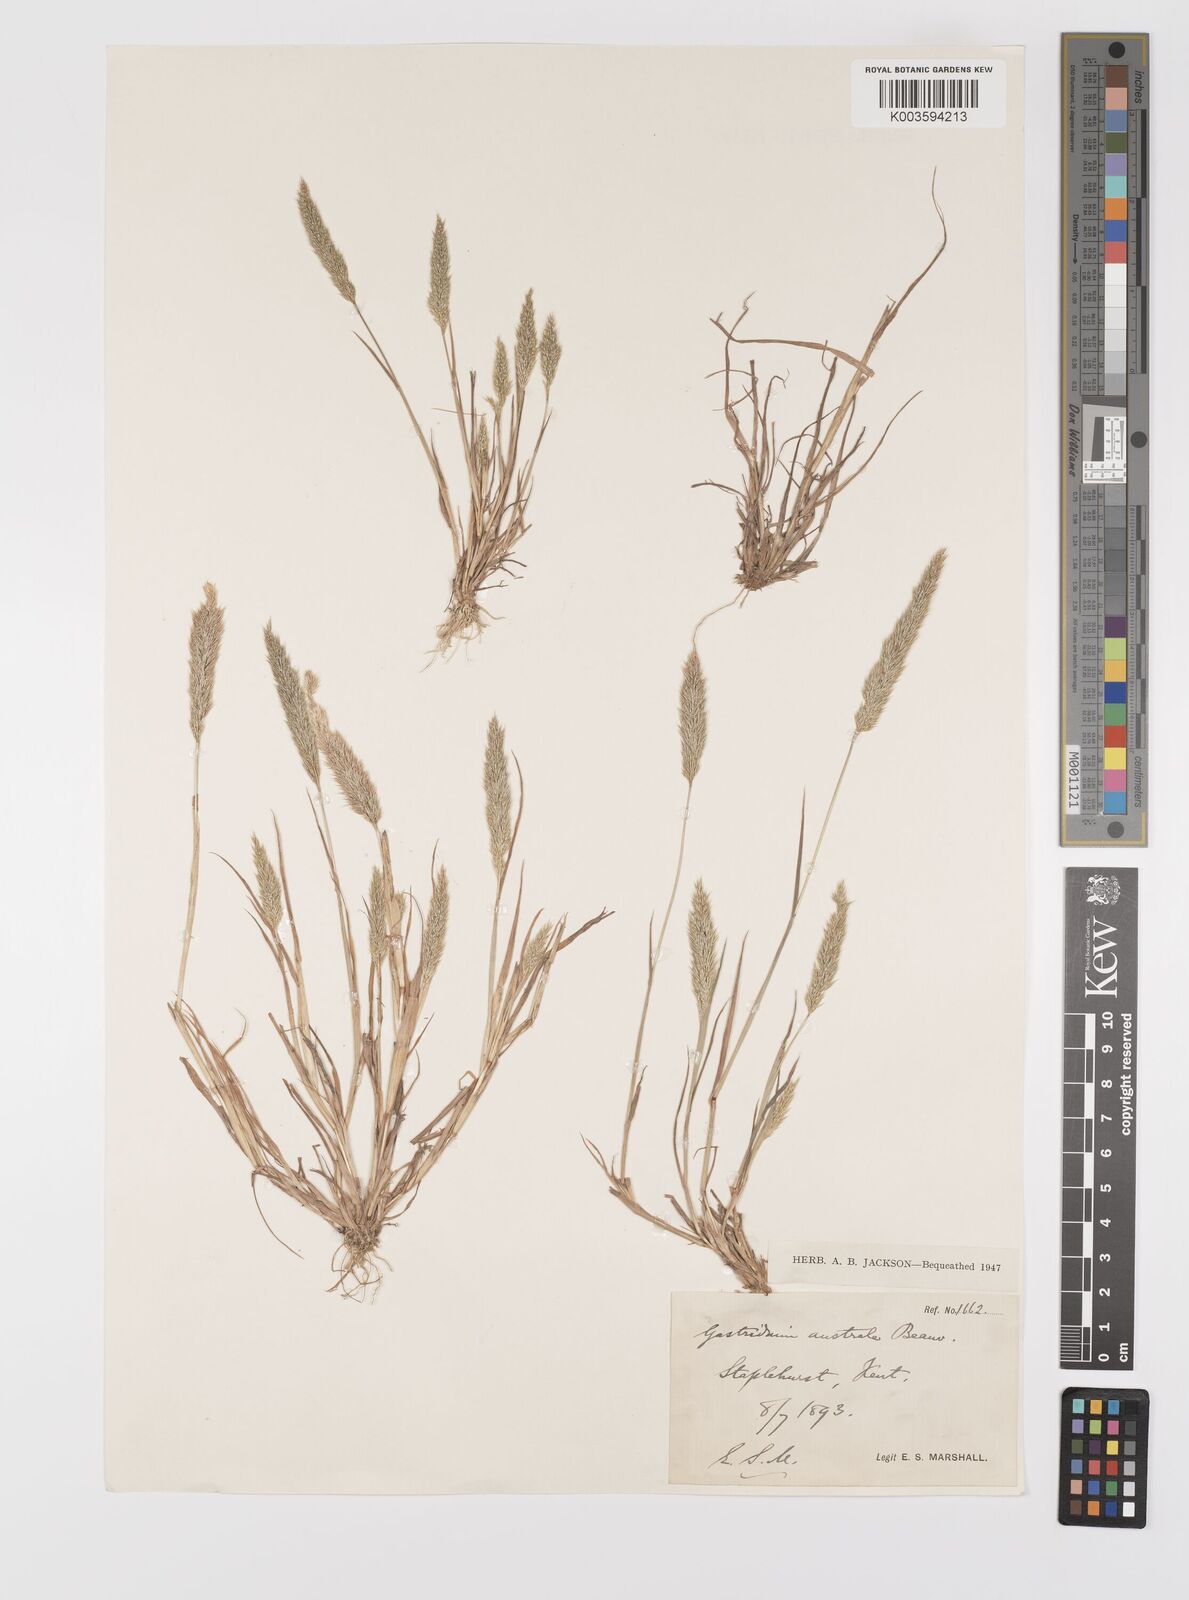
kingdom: Plantae
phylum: Tracheophyta
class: Liliopsida
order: Poales
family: Poaceae
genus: Gastridium
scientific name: Gastridium ventricosum
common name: Nit-grass
